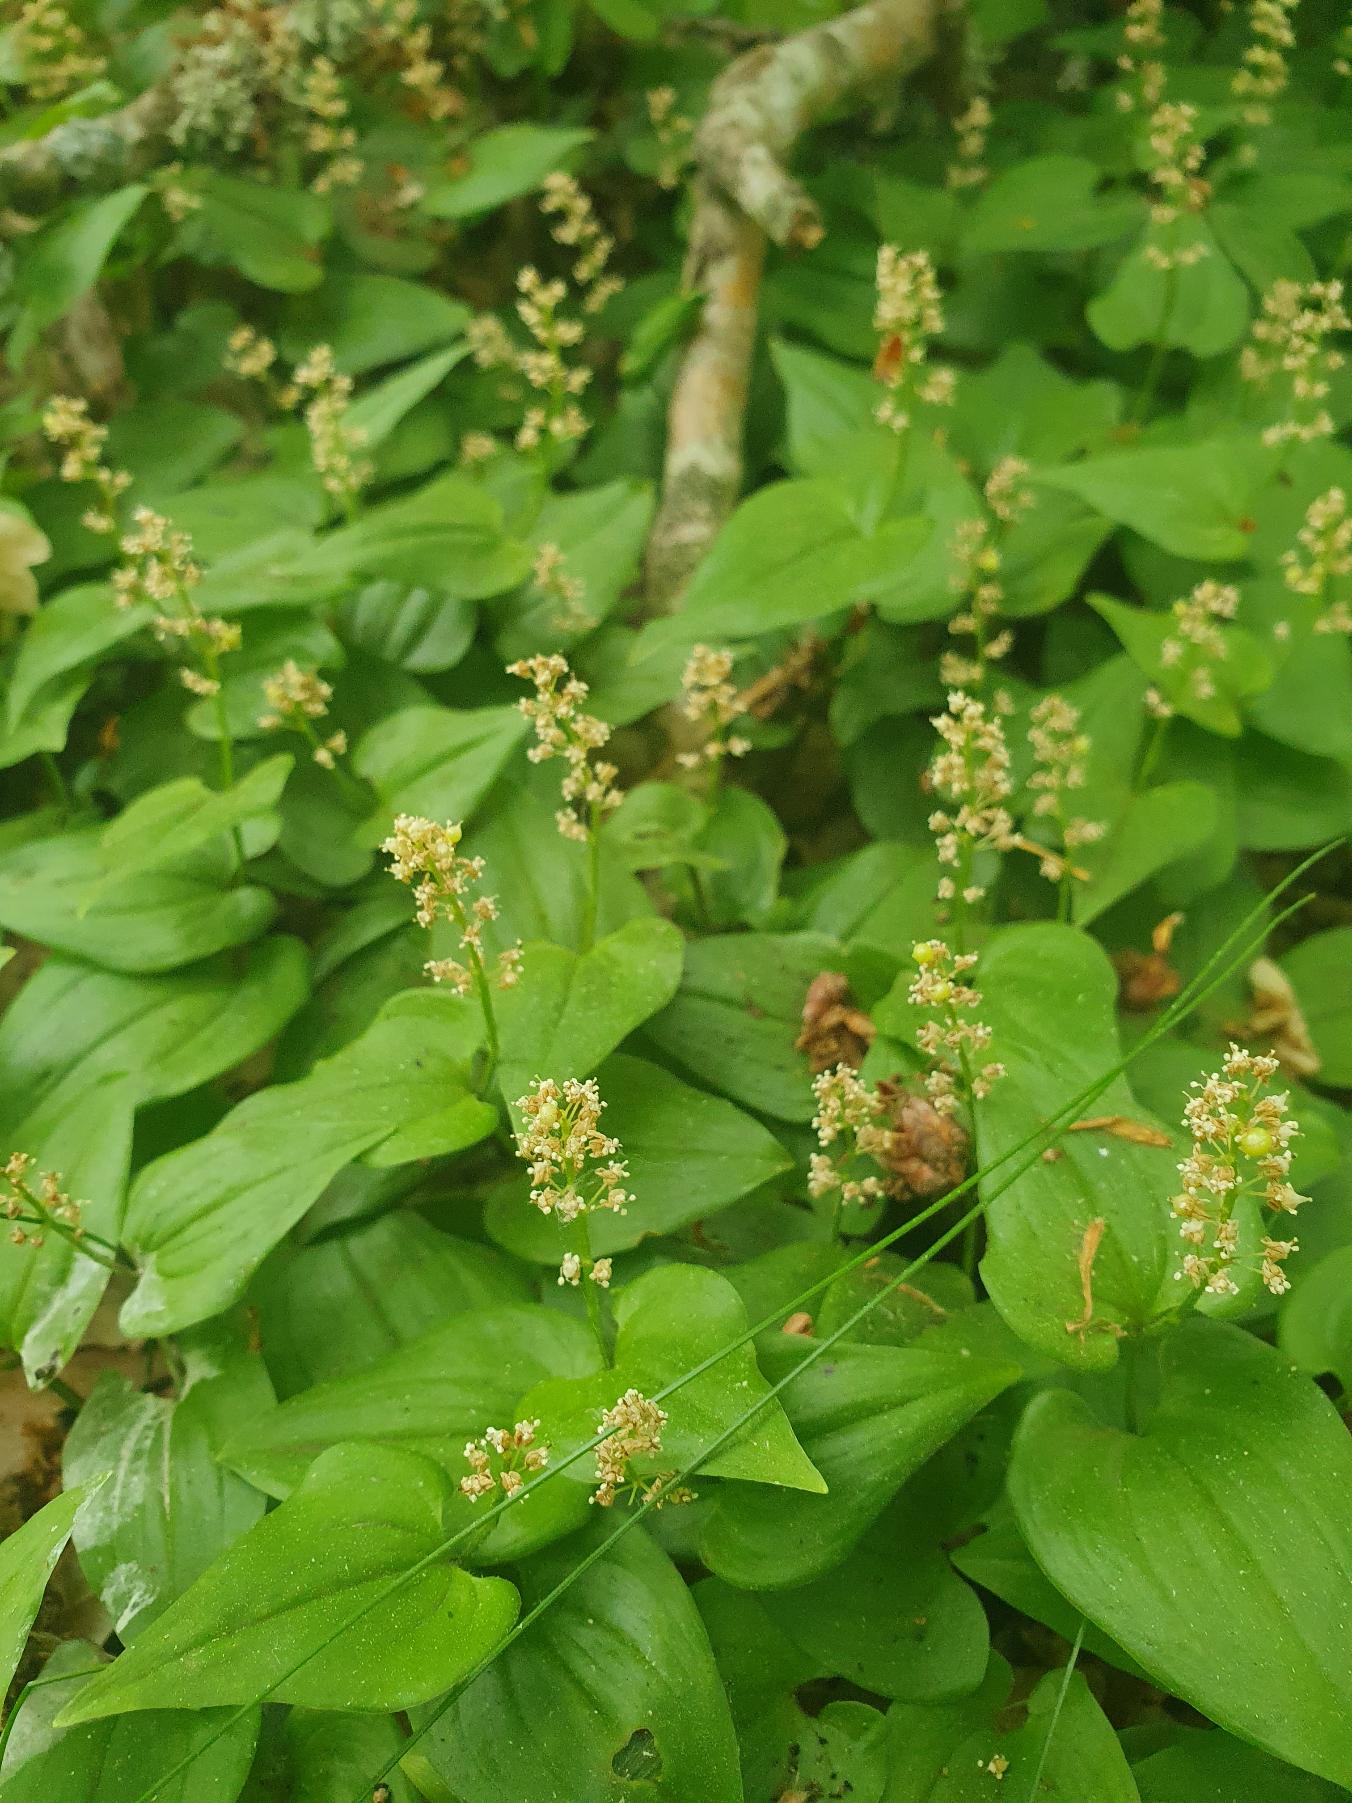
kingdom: Plantae
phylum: Tracheophyta
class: Liliopsida
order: Asparagales
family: Asparagaceae
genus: Maianthemum
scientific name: Maianthemum bifolium
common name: Majblomst
